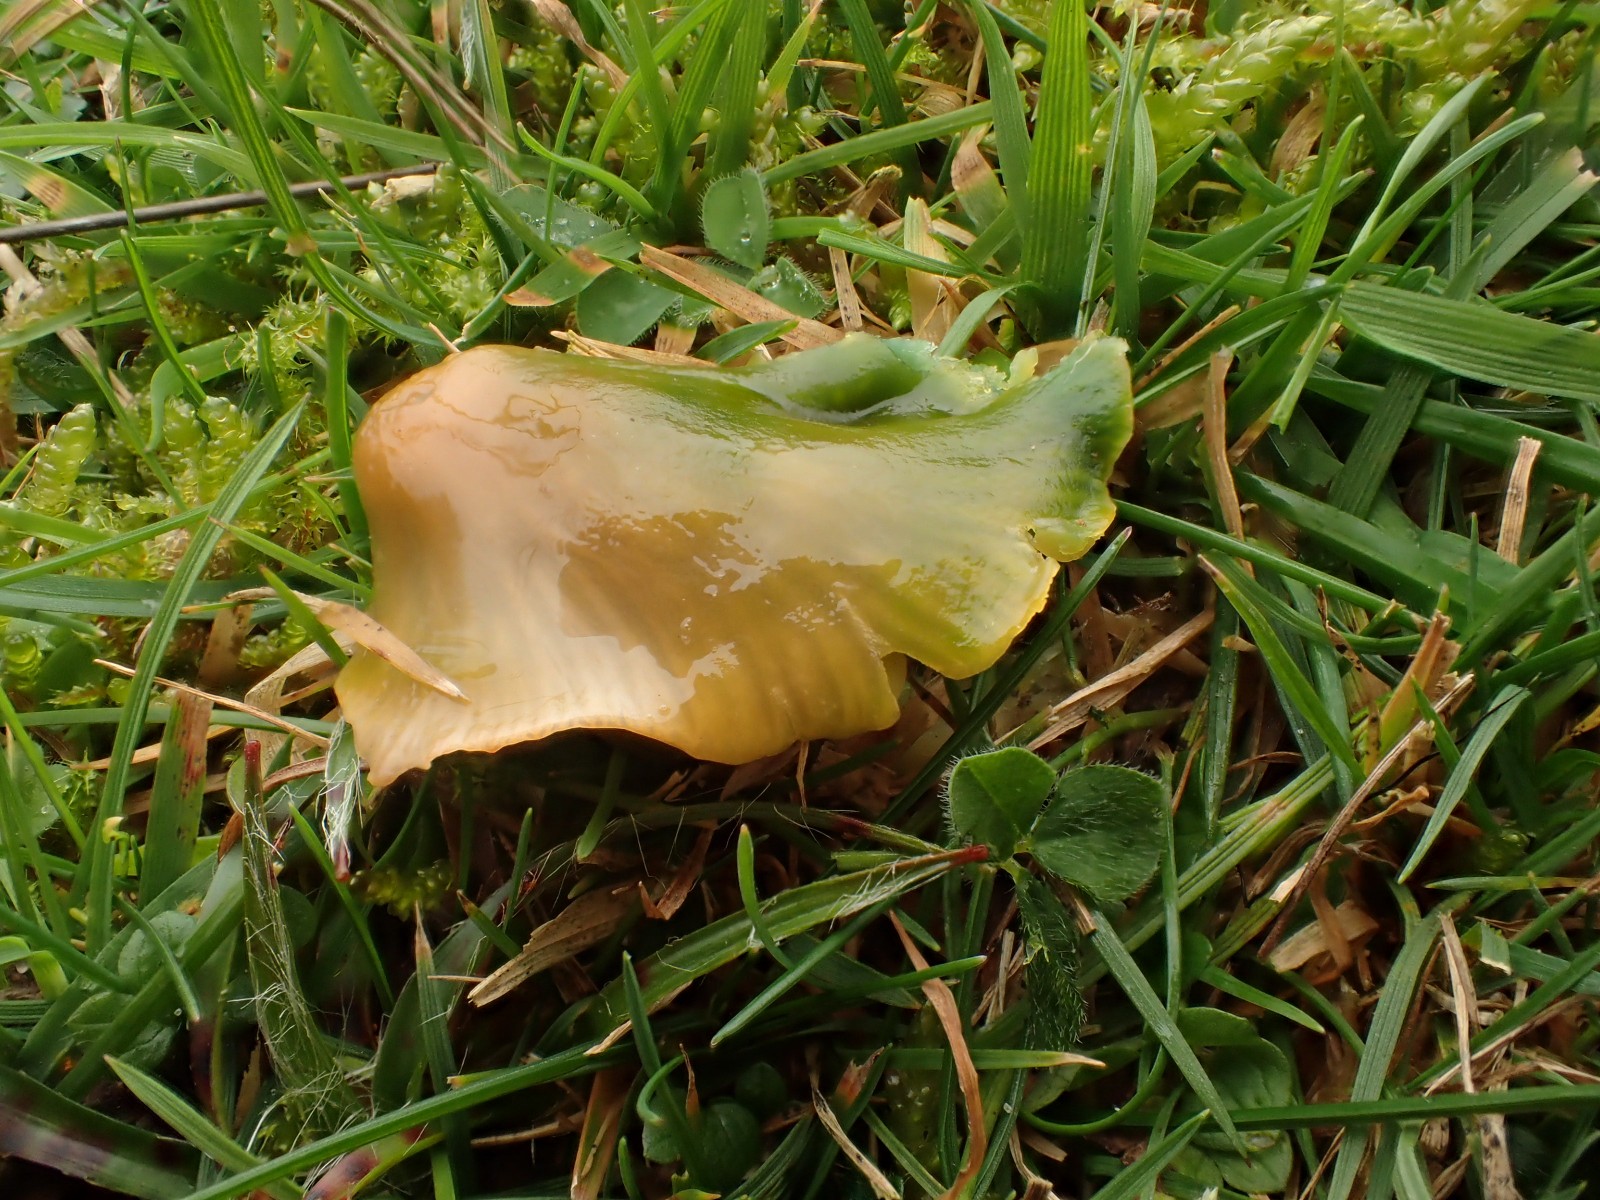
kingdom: Fungi
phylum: Basidiomycota
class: Agaricomycetes
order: Agaricales
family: Hygrophoraceae
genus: Gliophorus
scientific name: Gliophorus psittacinus
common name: papegøje-vokshat
